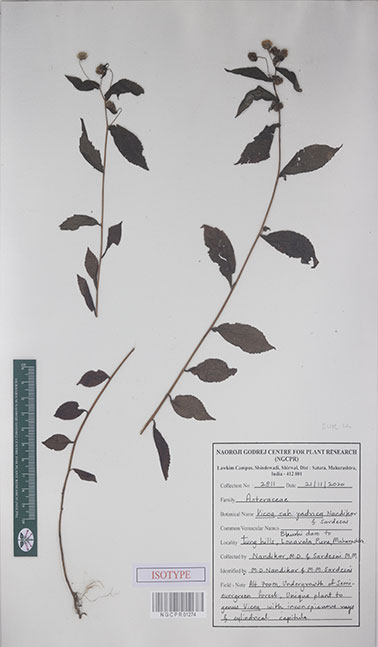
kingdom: Plantae
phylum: Tracheophyta
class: Magnoliopsida
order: Asterales
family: Asteraceae
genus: Vicoa
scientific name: Vicoa sahyadrica
